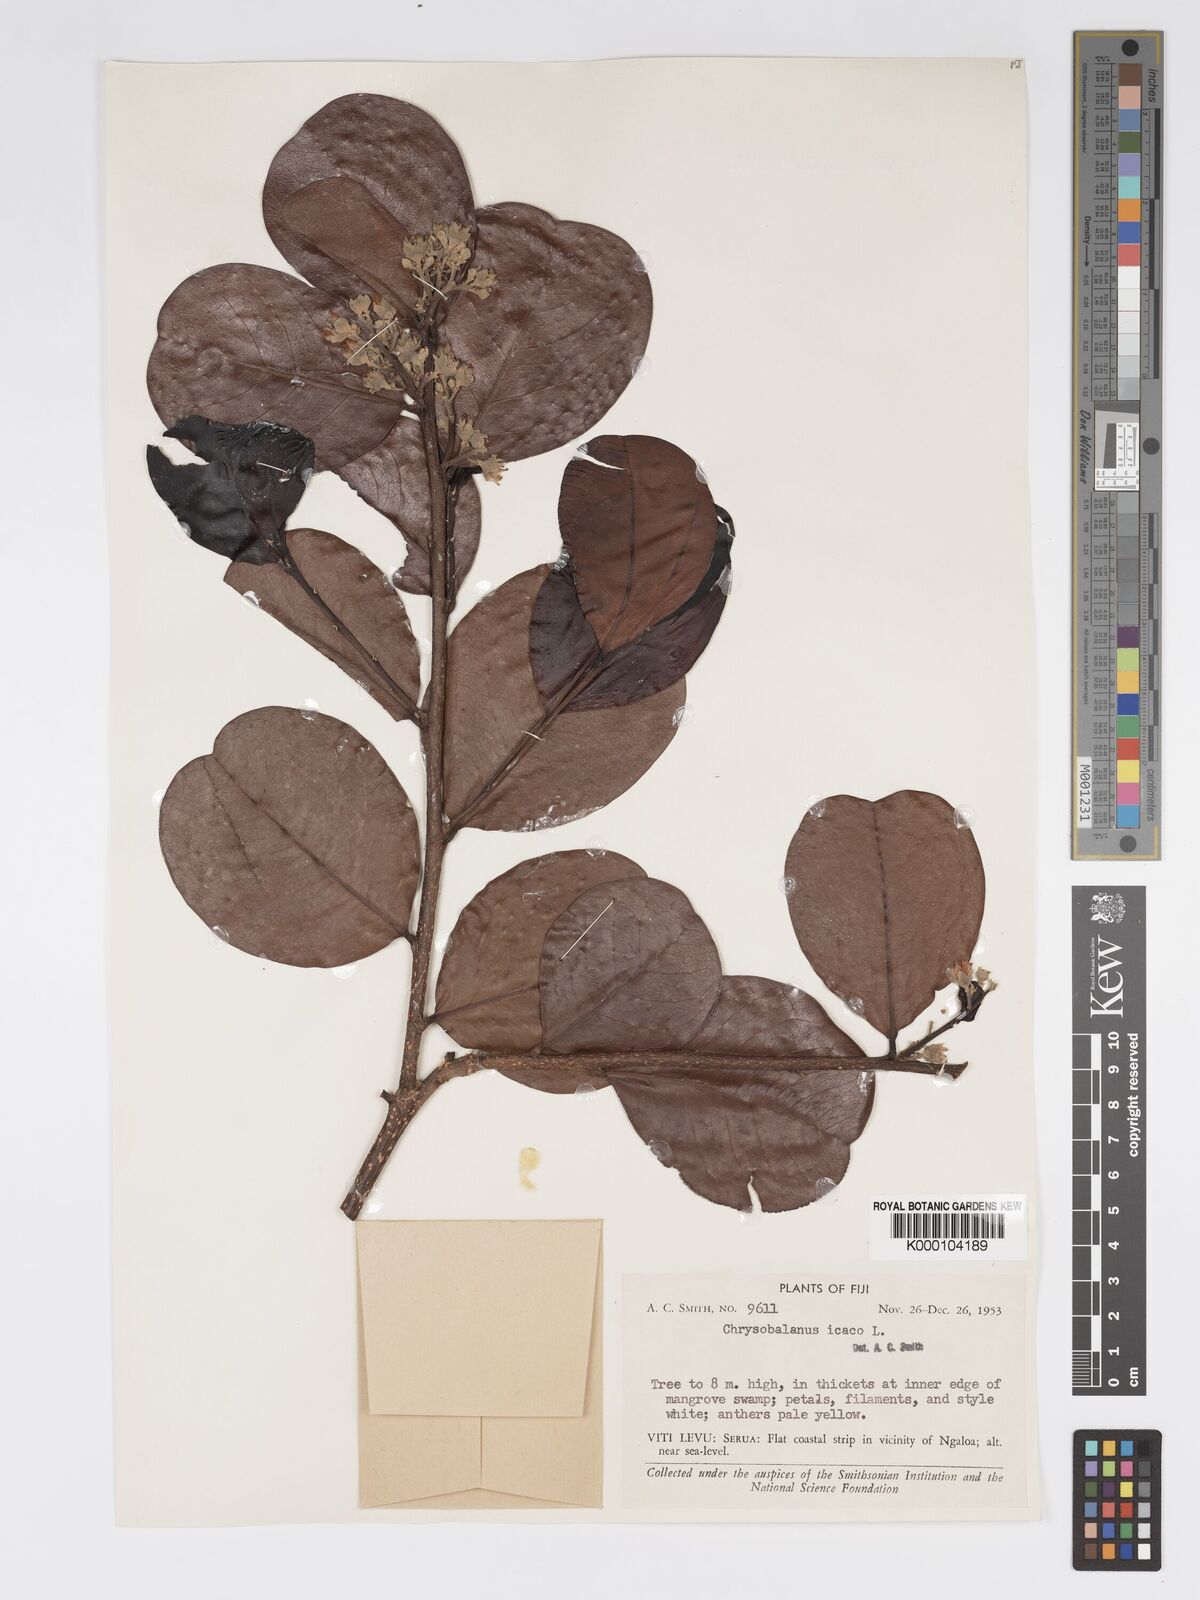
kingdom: Plantae
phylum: Tracheophyta
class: Magnoliopsida
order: Malpighiales
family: Chrysobalanaceae
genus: Chrysobalanus
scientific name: Chrysobalanus icaco
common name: Coco plum
